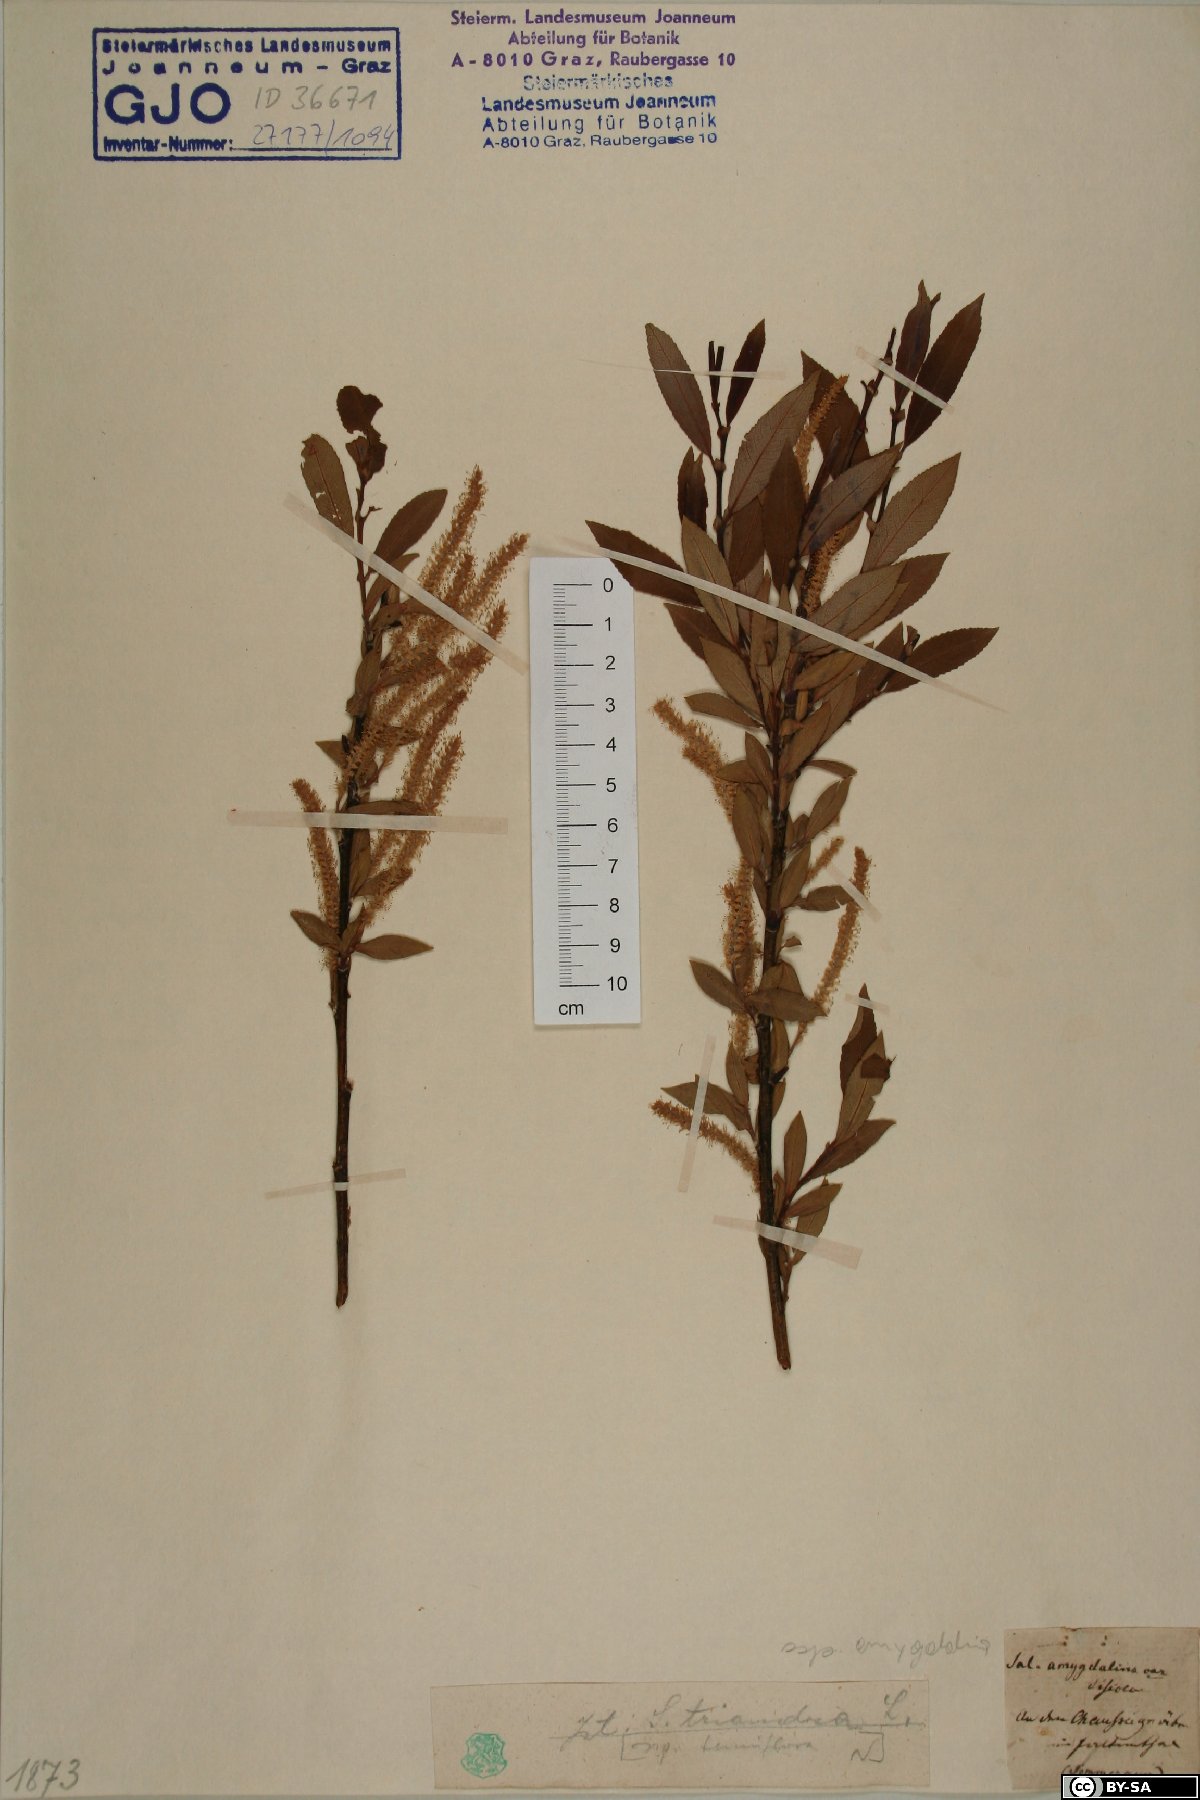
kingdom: Plantae
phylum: Tracheophyta
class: Magnoliopsida
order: Malpighiales
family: Salicaceae
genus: Salix
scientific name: Salix triandra
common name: Almond willow
